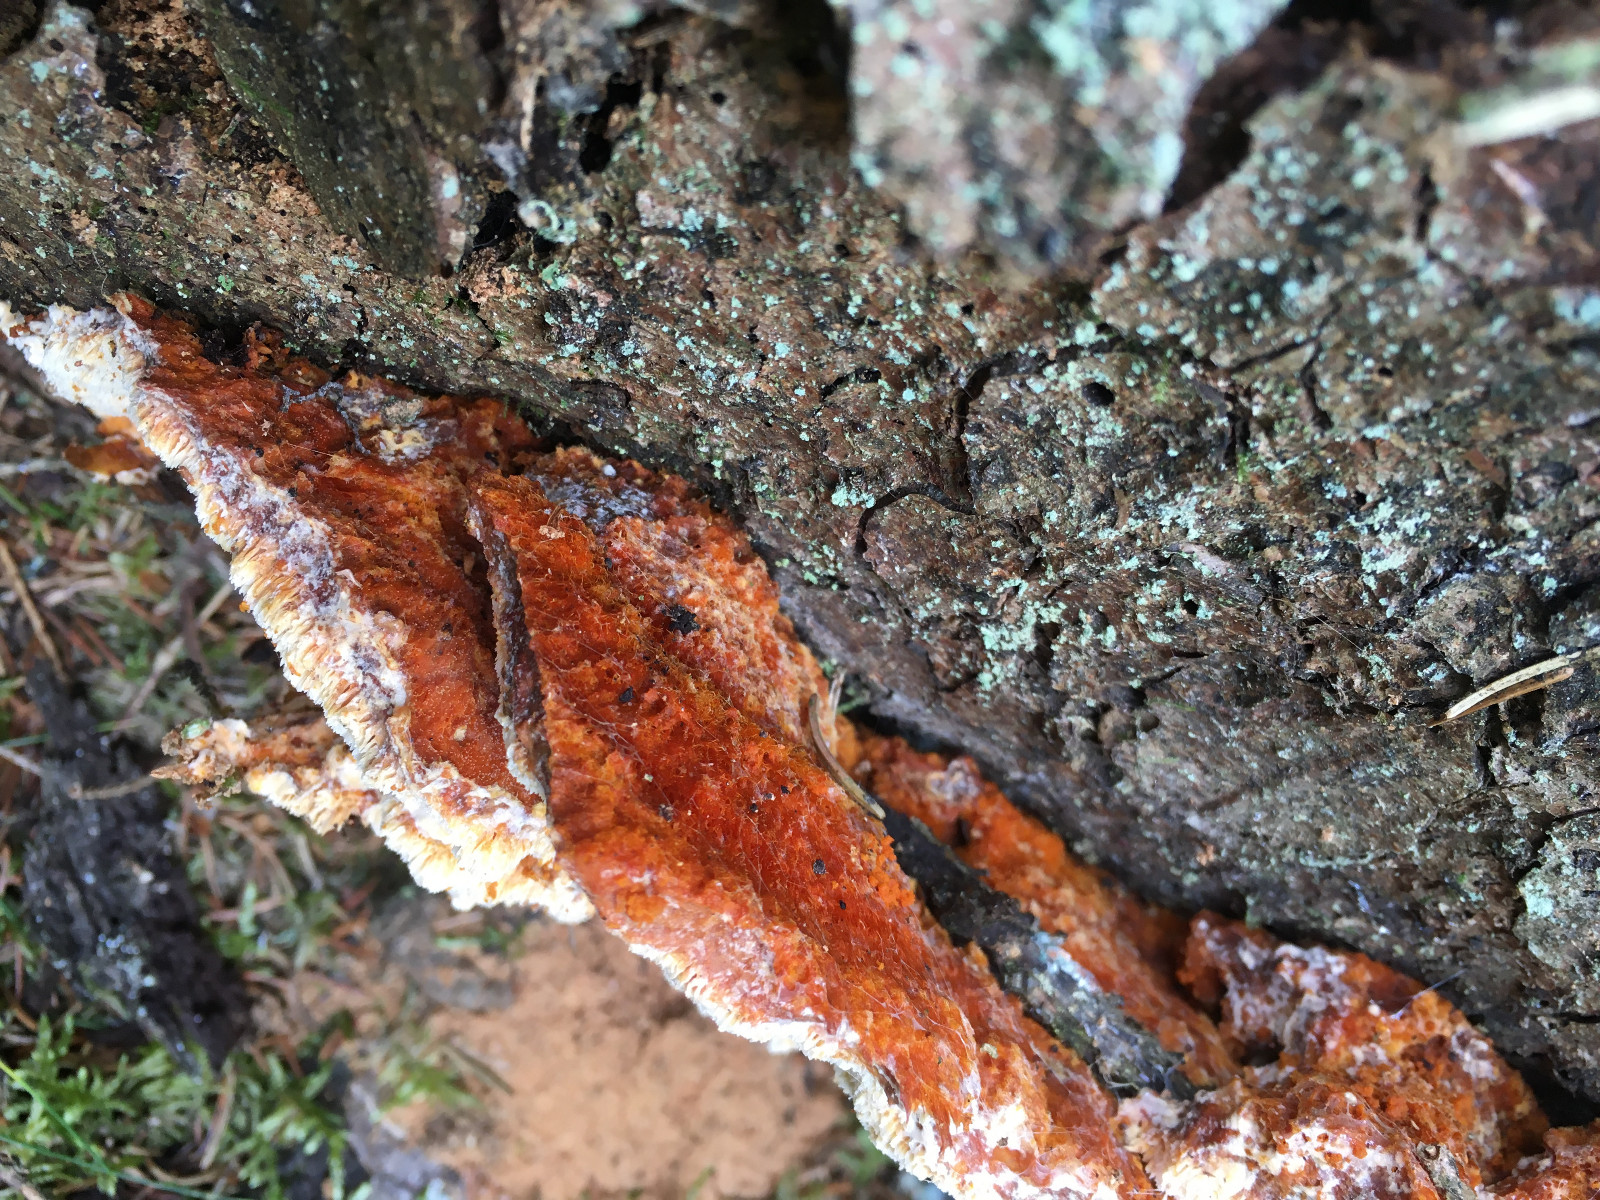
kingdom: Fungi
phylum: Basidiomycota
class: Agaricomycetes
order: Polyporales
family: Pycnoporellaceae
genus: Pycnoporellus
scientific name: Pycnoporellus fulgens
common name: flammeporesvamp
